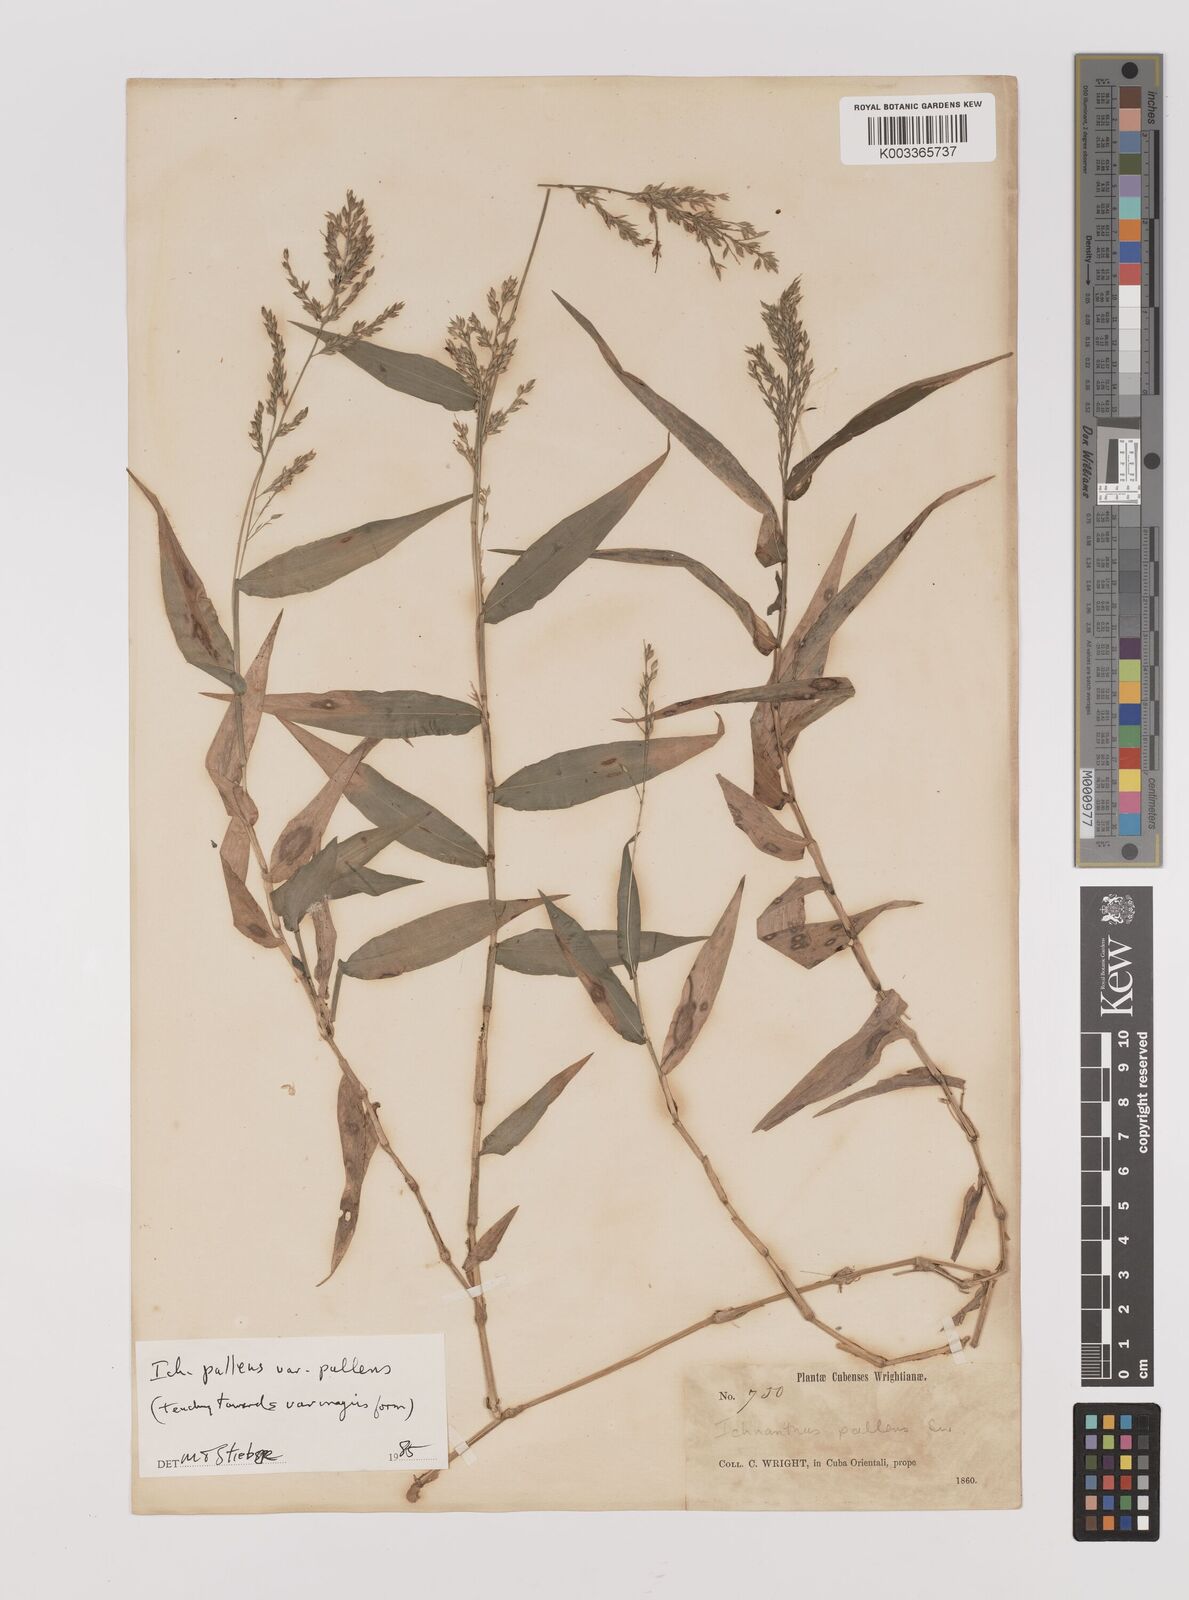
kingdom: Plantae
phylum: Tracheophyta
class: Liliopsida
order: Poales
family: Poaceae
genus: Ichnanthus
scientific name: Ichnanthus pallens
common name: Water grass
